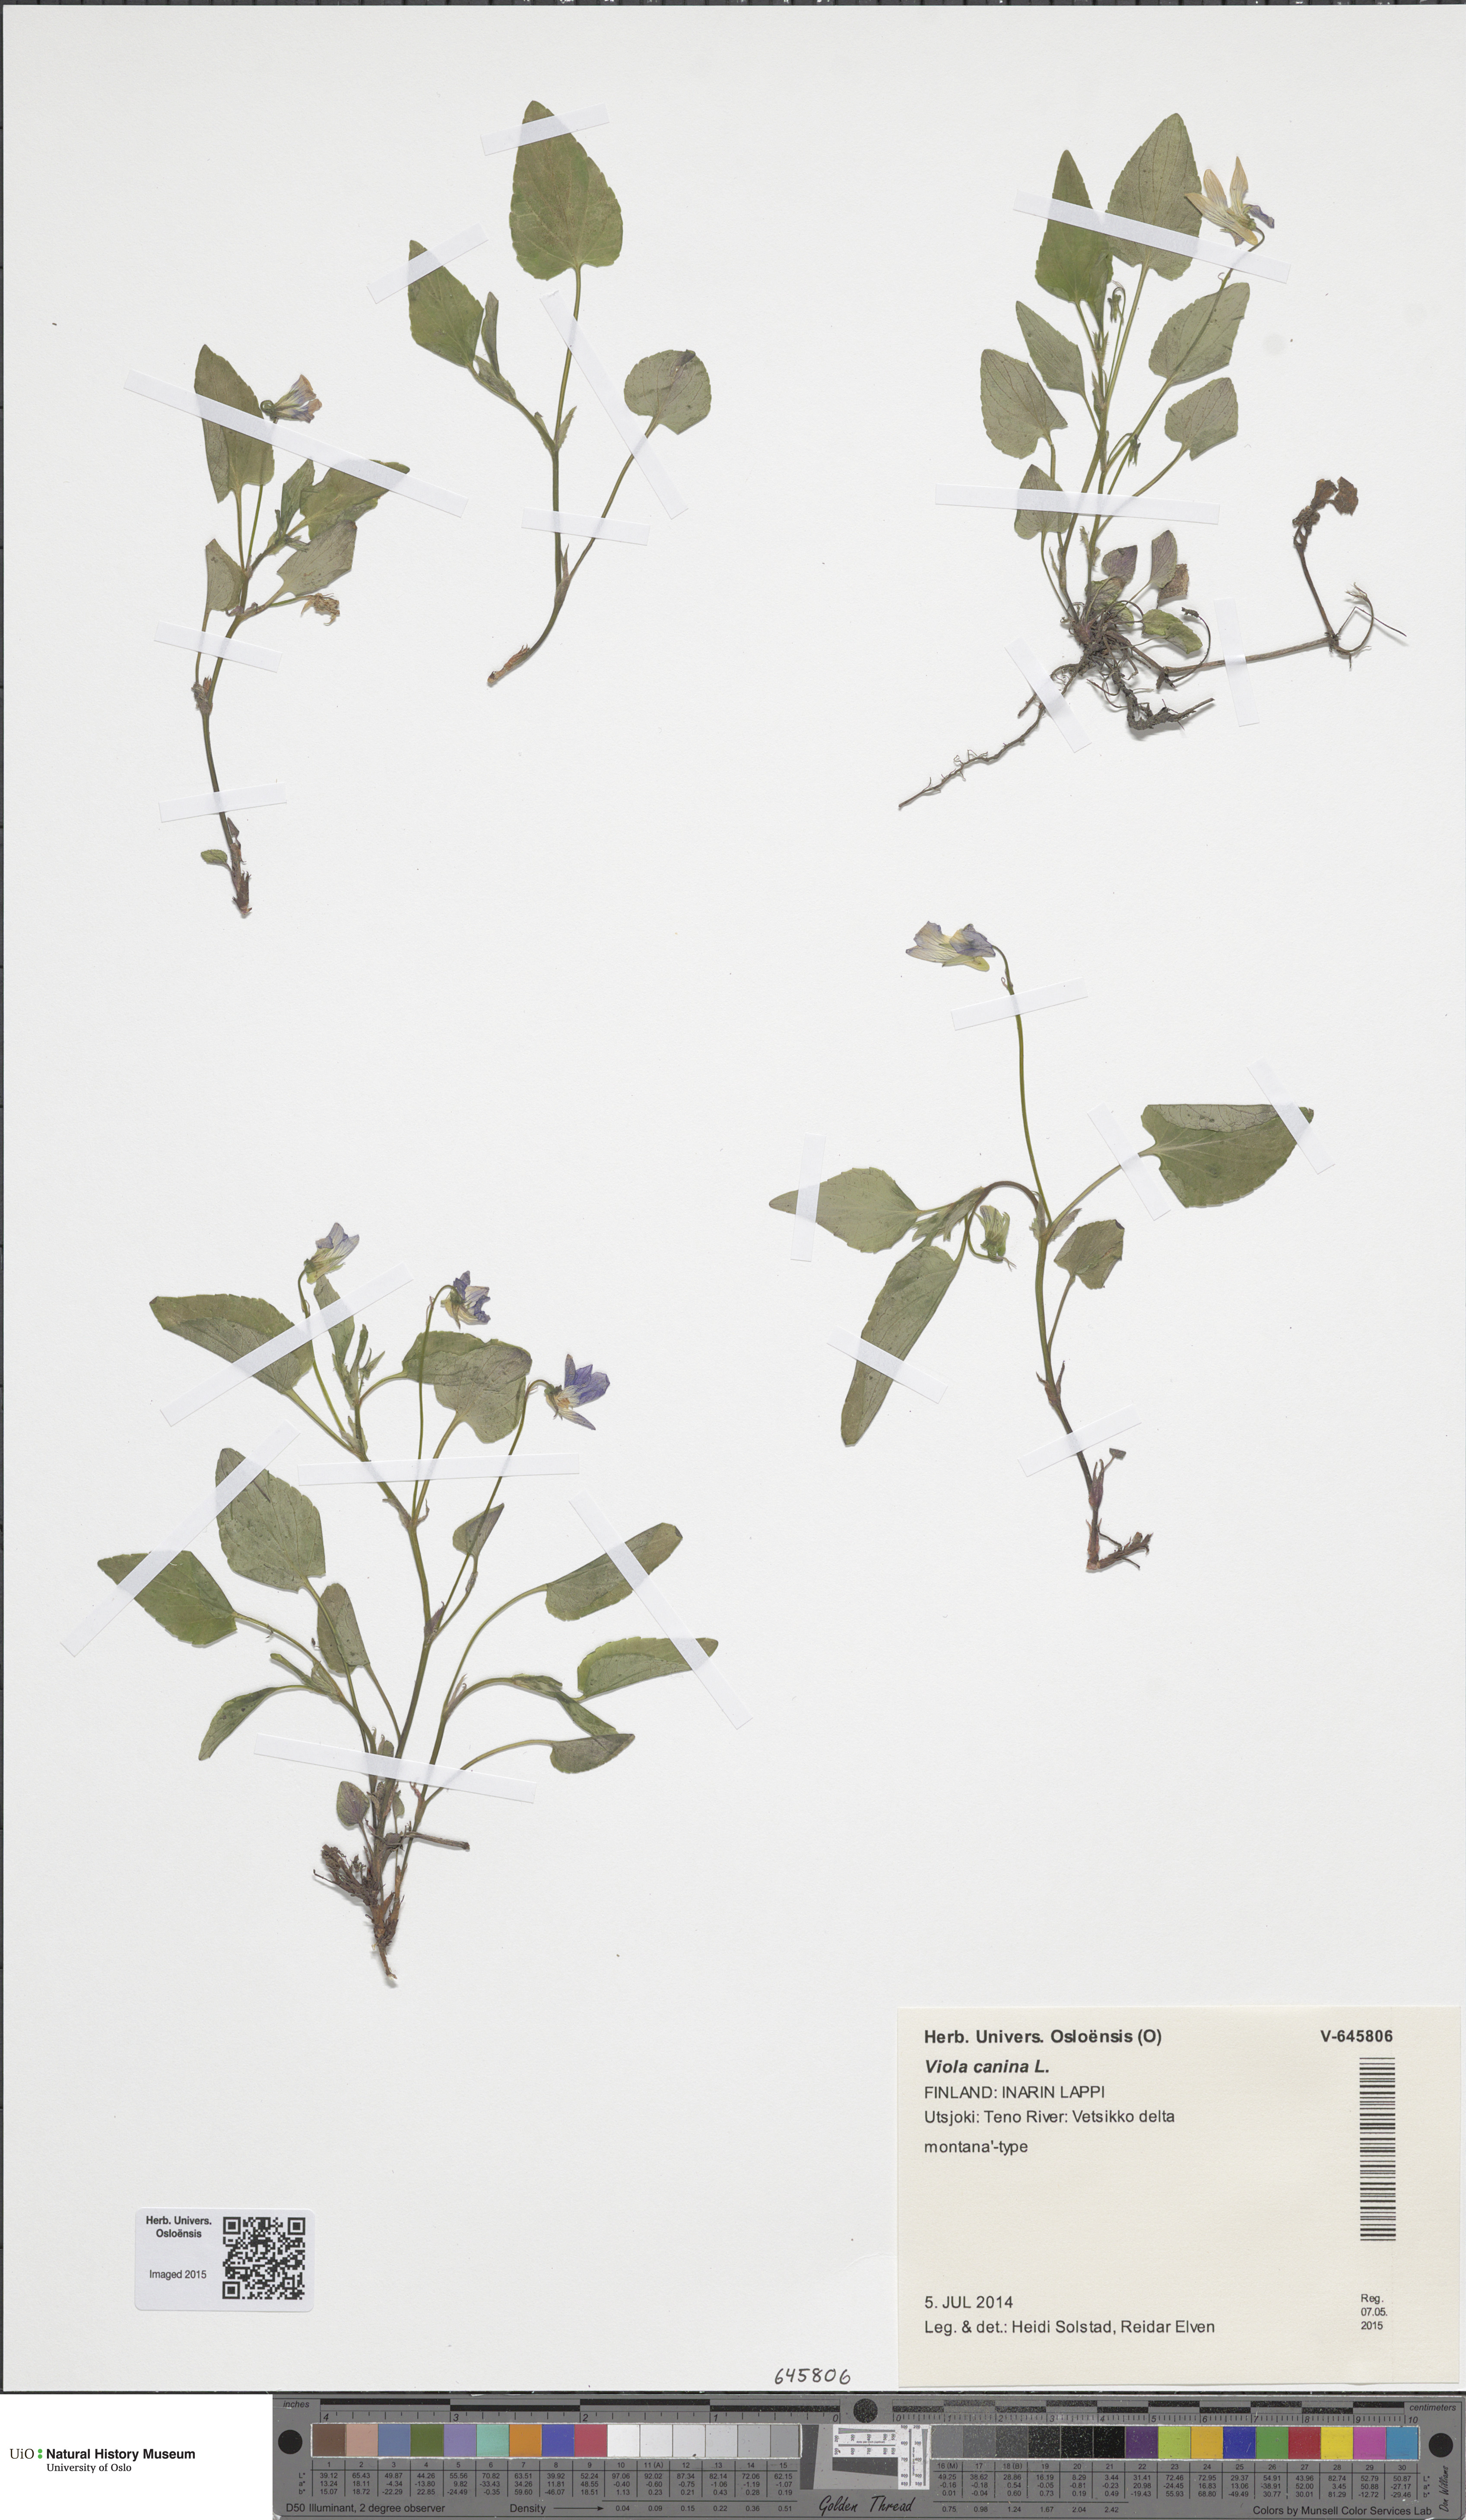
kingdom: Plantae
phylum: Tracheophyta
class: Magnoliopsida
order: Malpighiales
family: Violaceae
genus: Viola
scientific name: Viola canina
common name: Heath dog-violet
